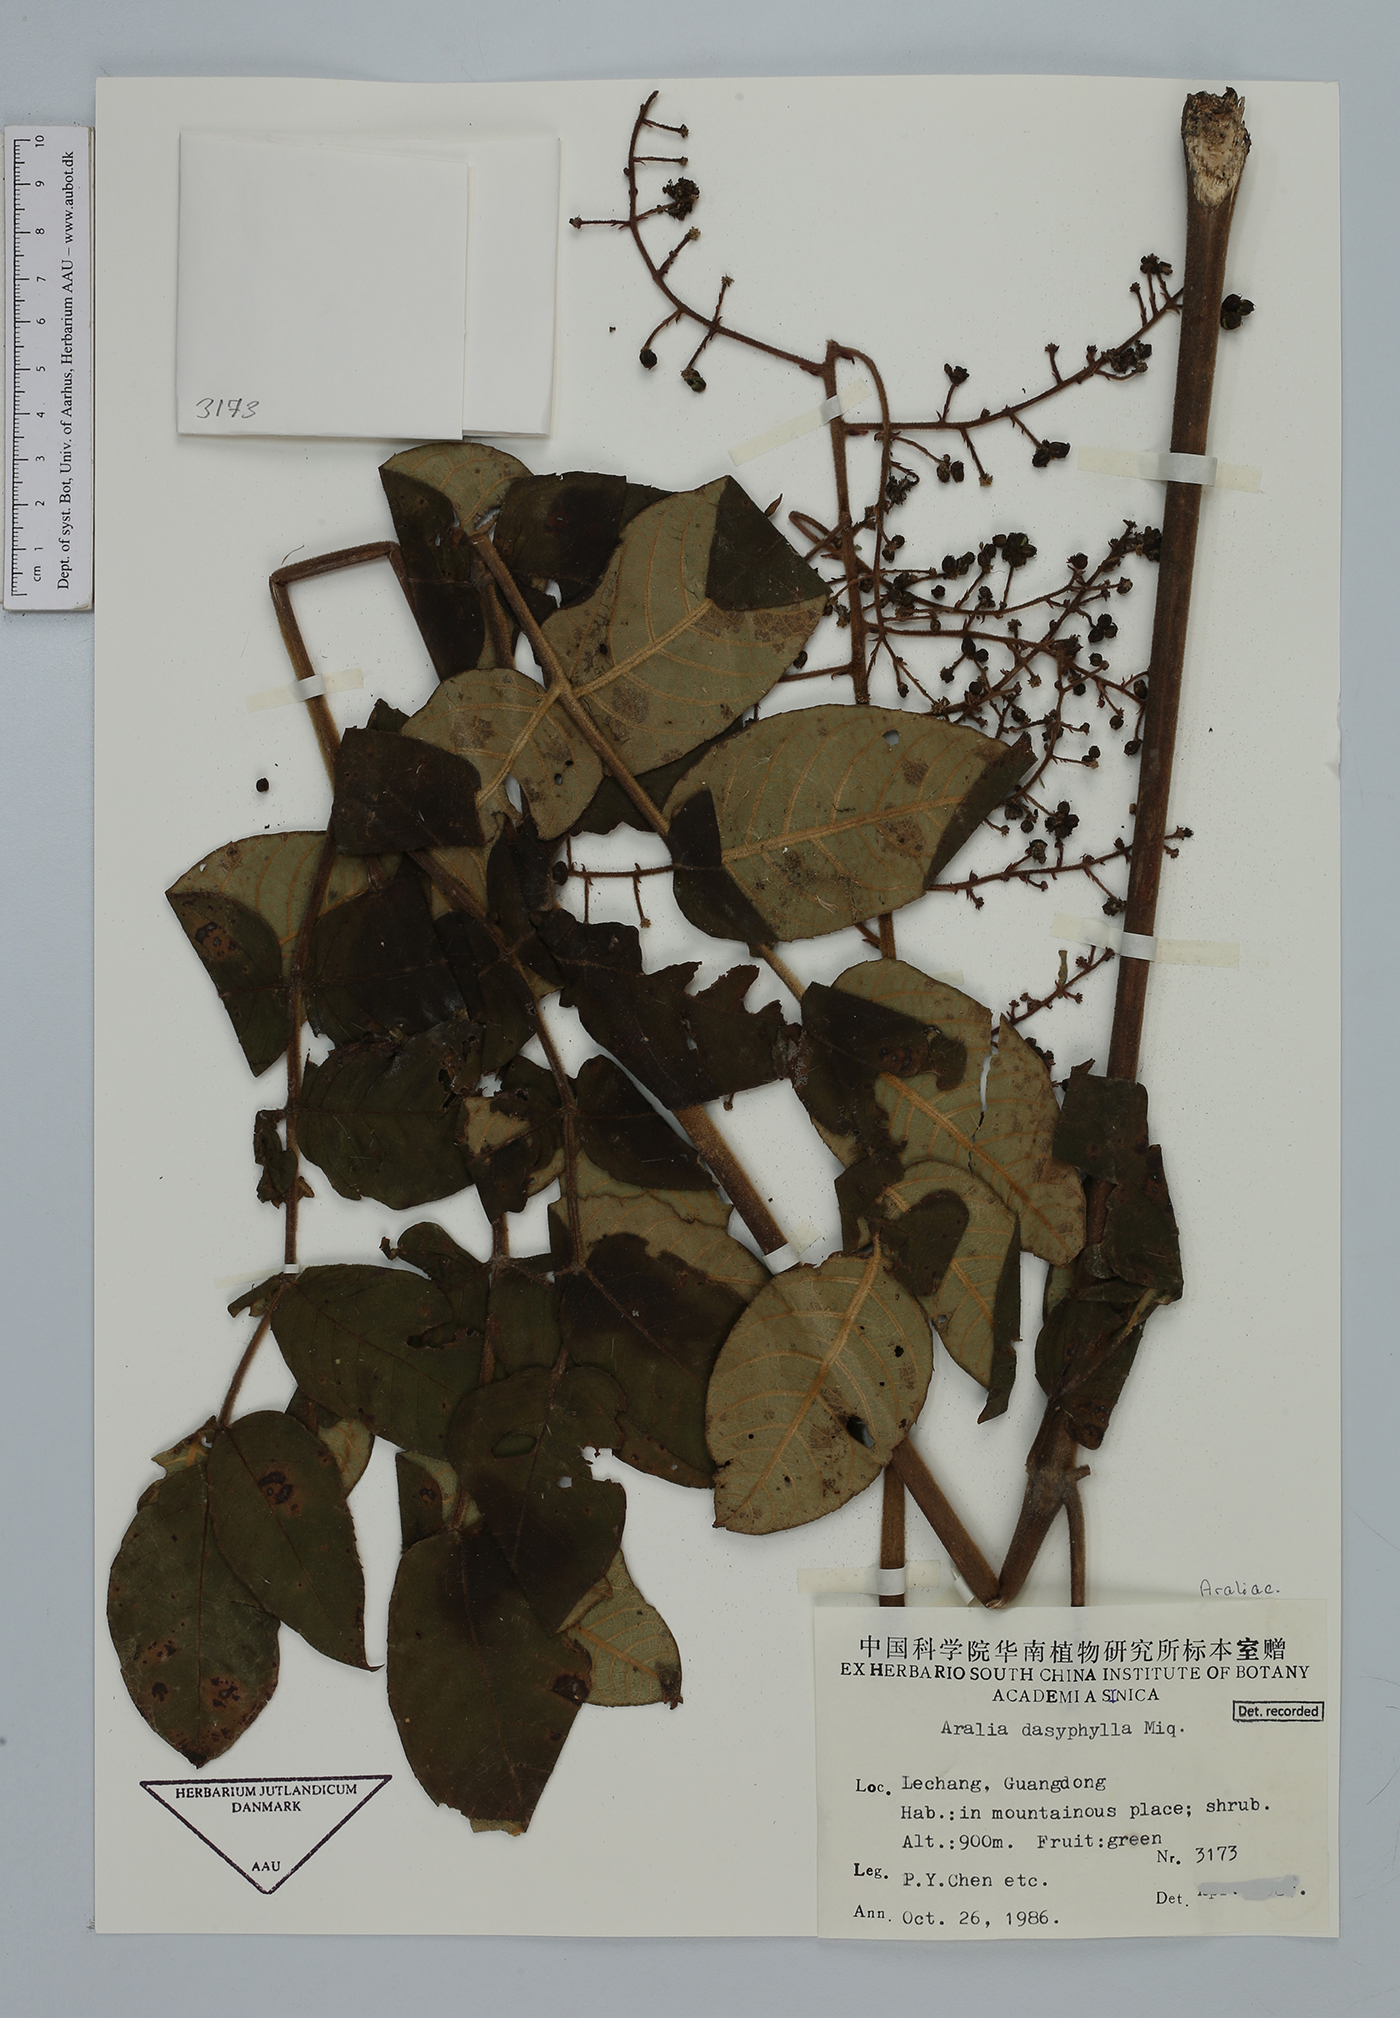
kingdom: Plantae
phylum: Tracheophyta
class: Magnoliopsida
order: Apiales
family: Araliaceae
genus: Aralia
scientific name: Aralia dasyphylla
